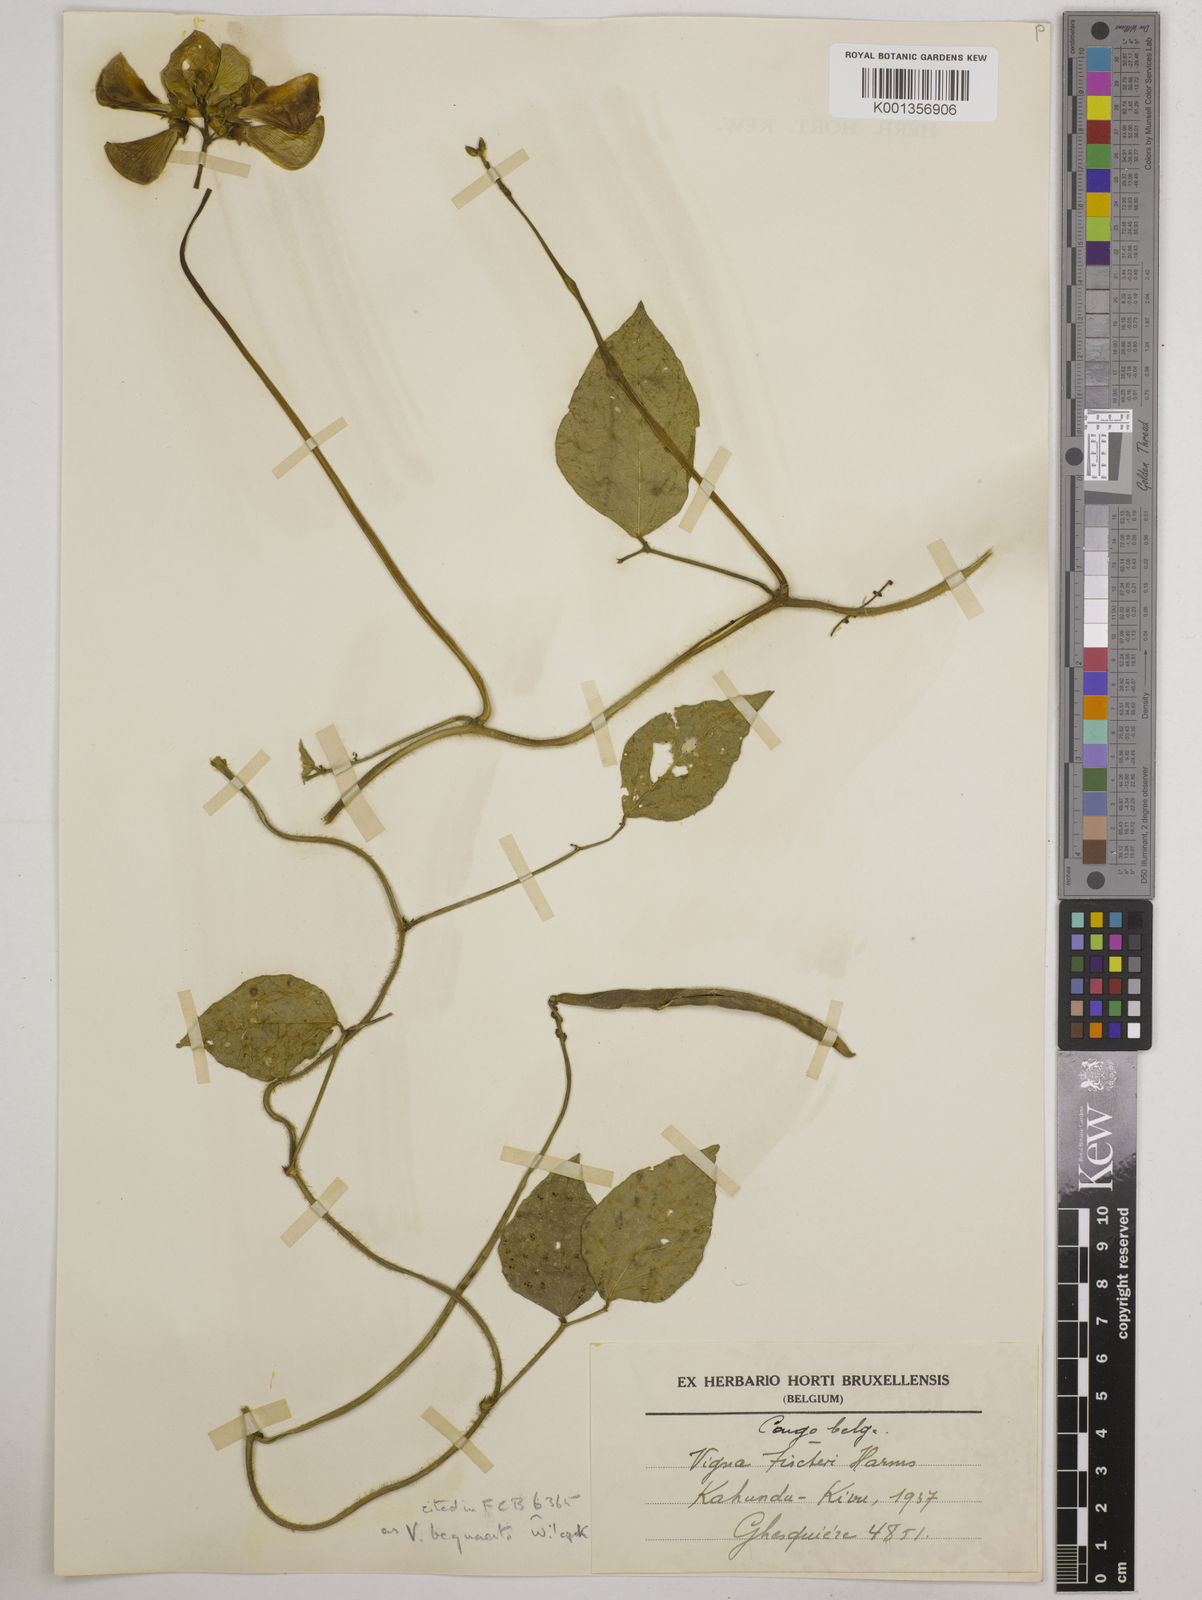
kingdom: Plantae
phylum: Tracheophyta
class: Magnoliopsida
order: Fabales
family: Fabaceae
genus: Vigna
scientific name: Vigna bequaertii
